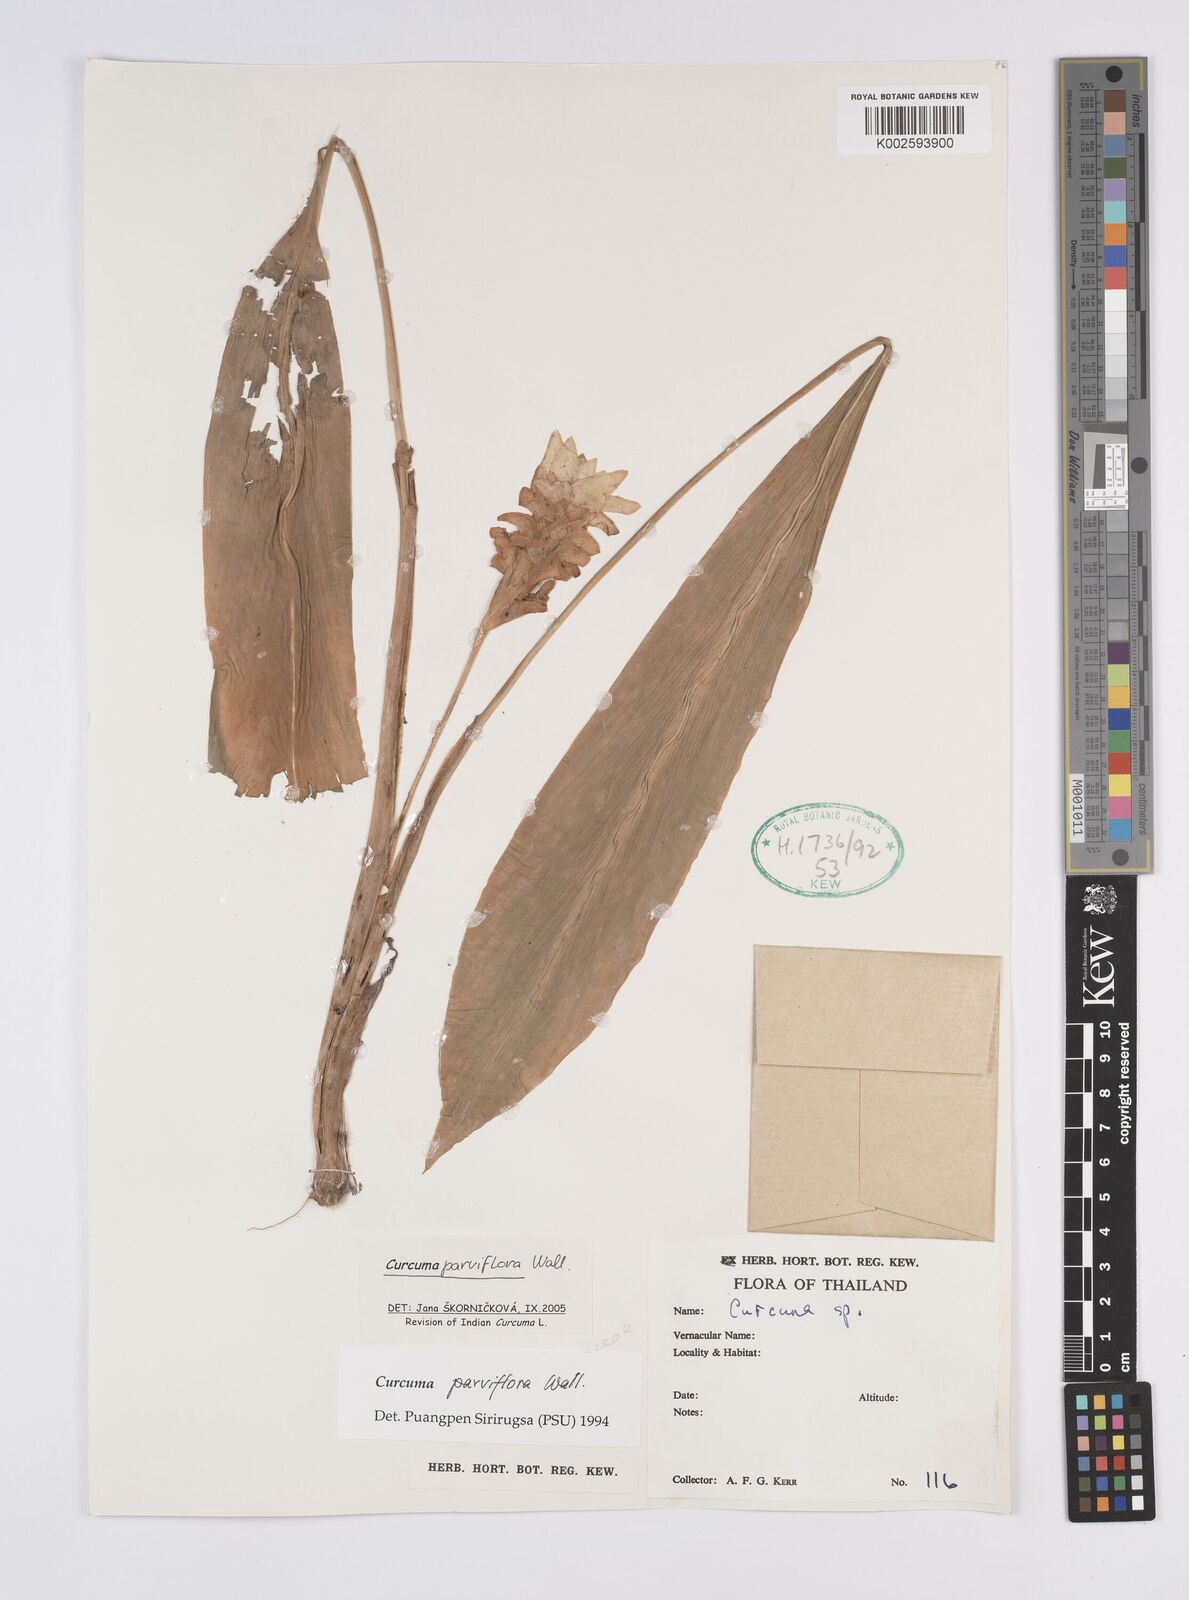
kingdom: Plantae
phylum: Tracheophyta
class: Liliopsida
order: Zingiberales
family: Zingiberaceae
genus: Curcuma
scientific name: Curcuma parviflora
